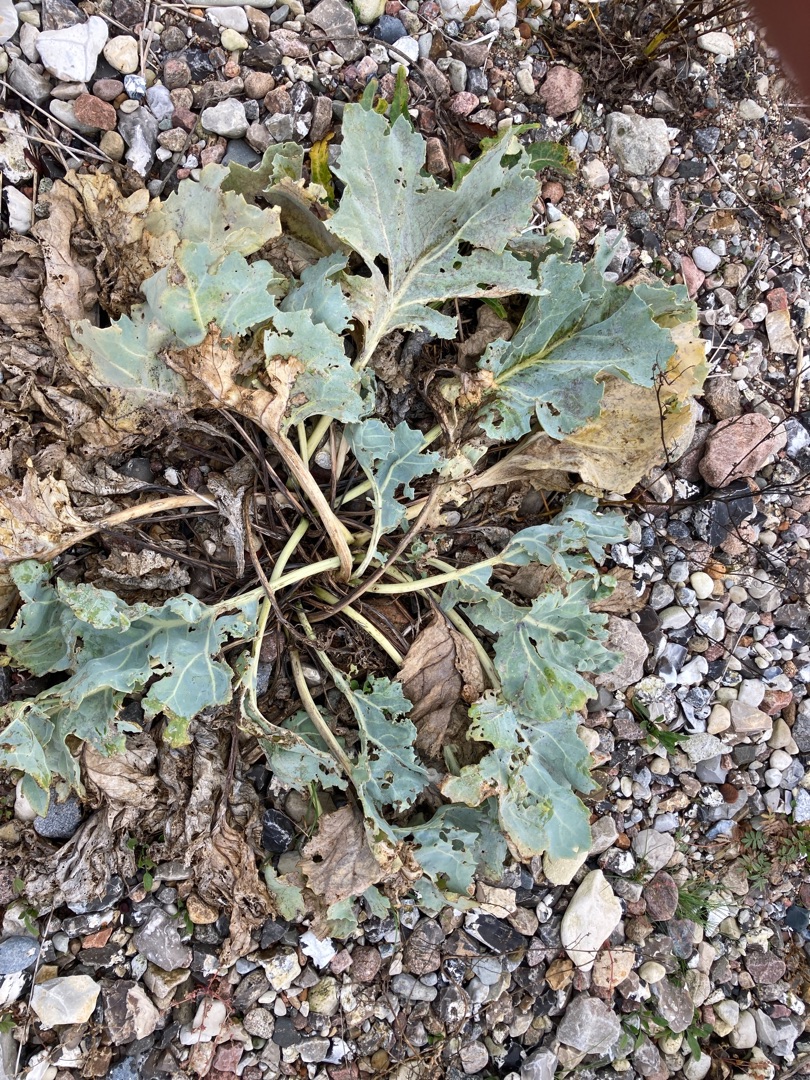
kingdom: Plantae
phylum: Tracheophyta
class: Magnoliopsida
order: Brassicales
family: Brassicaceae
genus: Crambe
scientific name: Crambe maritima
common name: Strandkål
